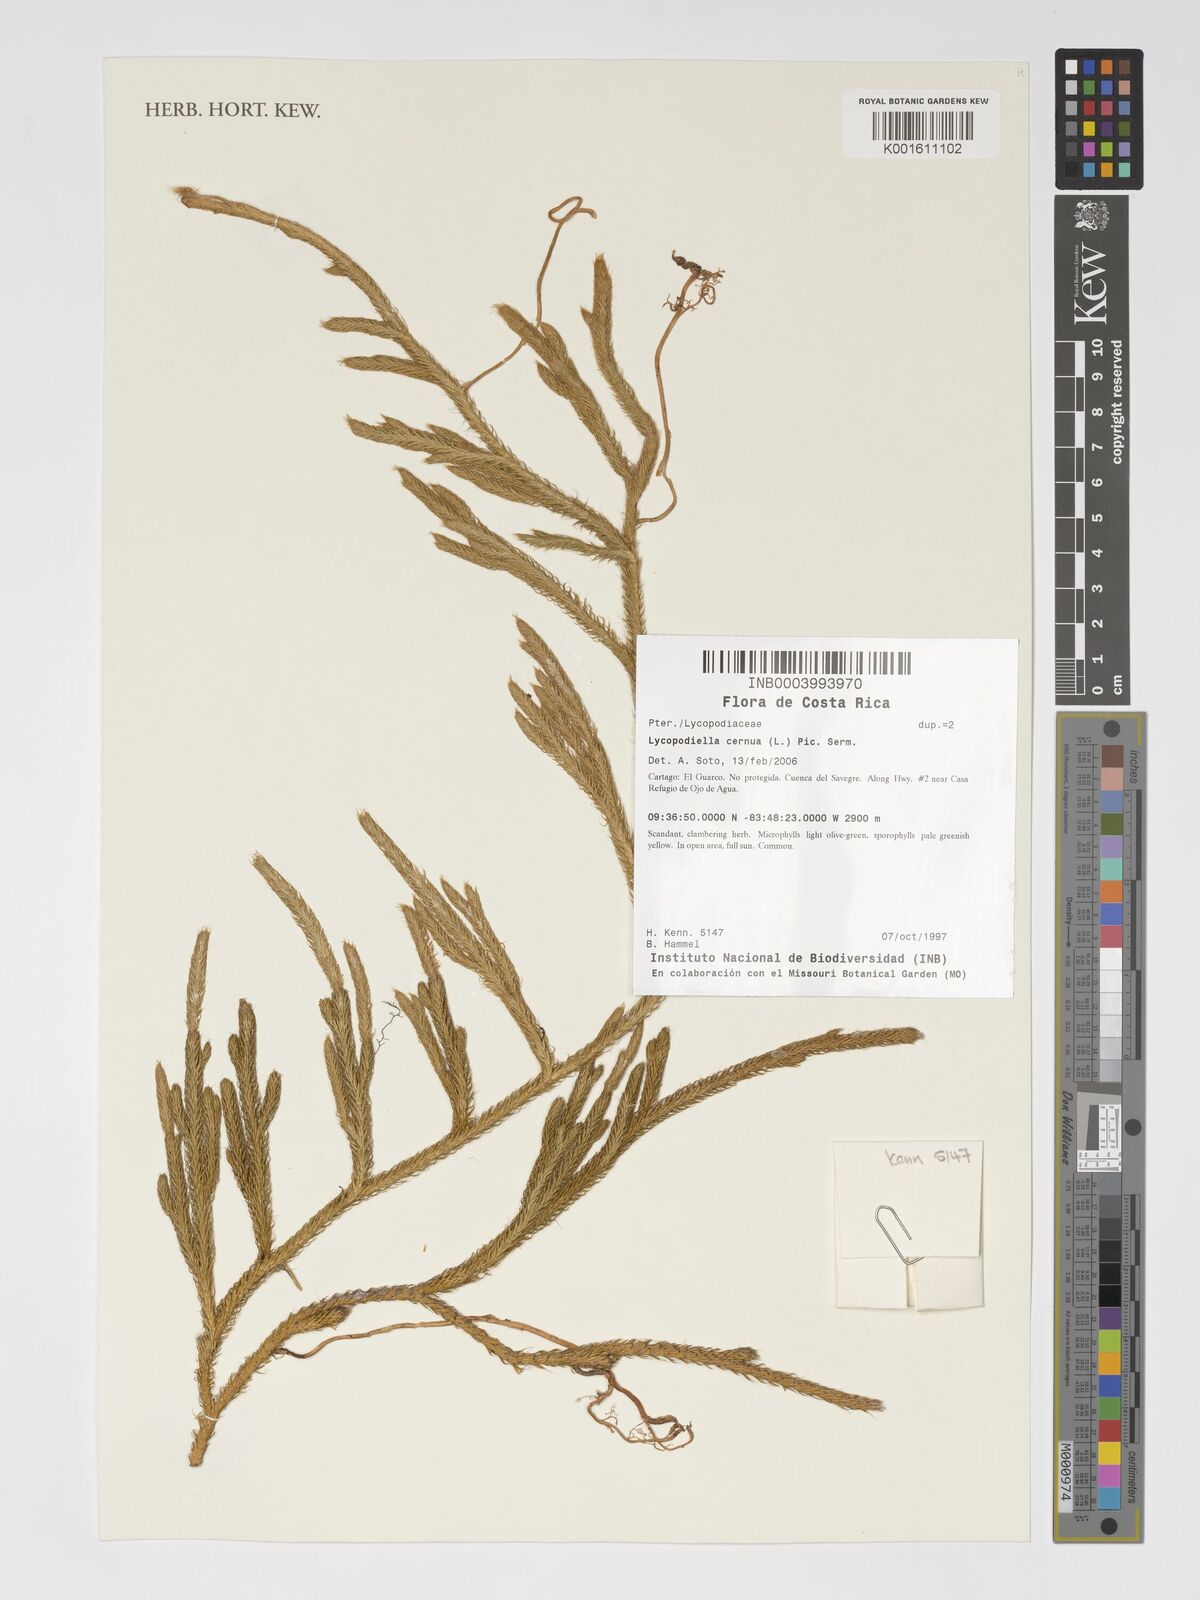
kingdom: Plantae
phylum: Tracheophyta
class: Lycopodiopsida
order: Lycopodiales
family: Lycopodiaceae
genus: Palhinhaea
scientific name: Palhinhaea cernua
